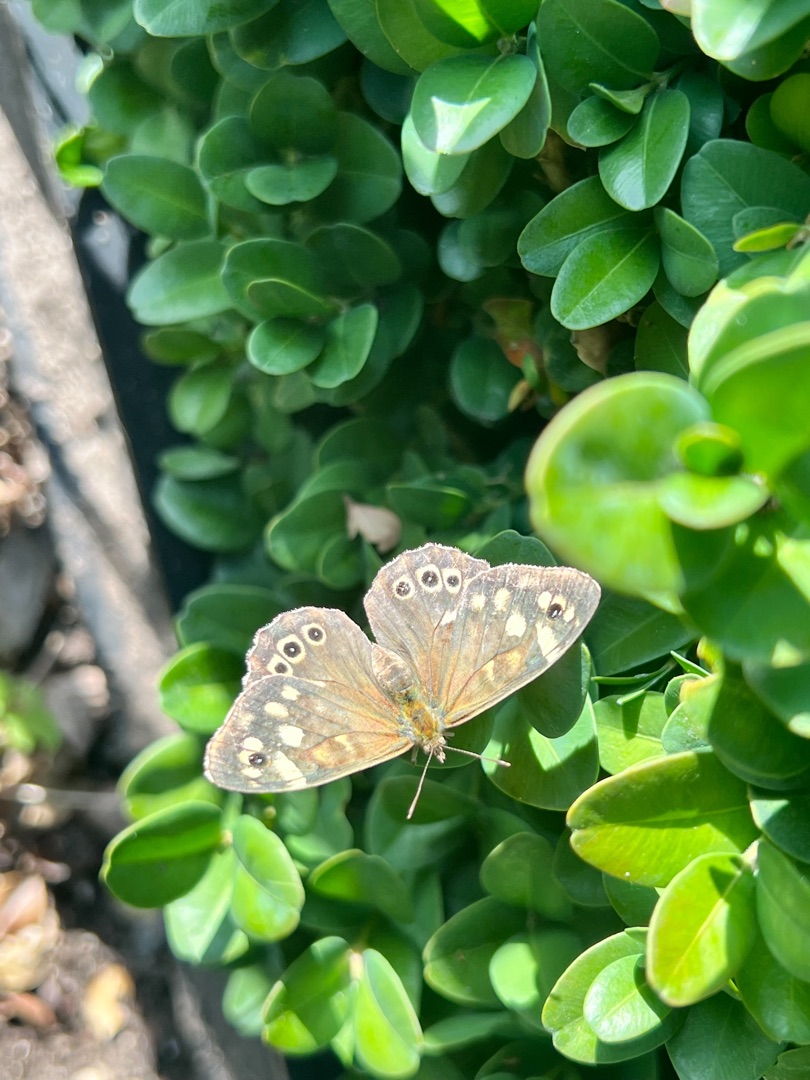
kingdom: Animalia
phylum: Arthropoda
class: Insecta
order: Lepidoptera
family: Nymphalidae
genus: Pararge
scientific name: Pararge aegeria
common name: Skovrandøje
